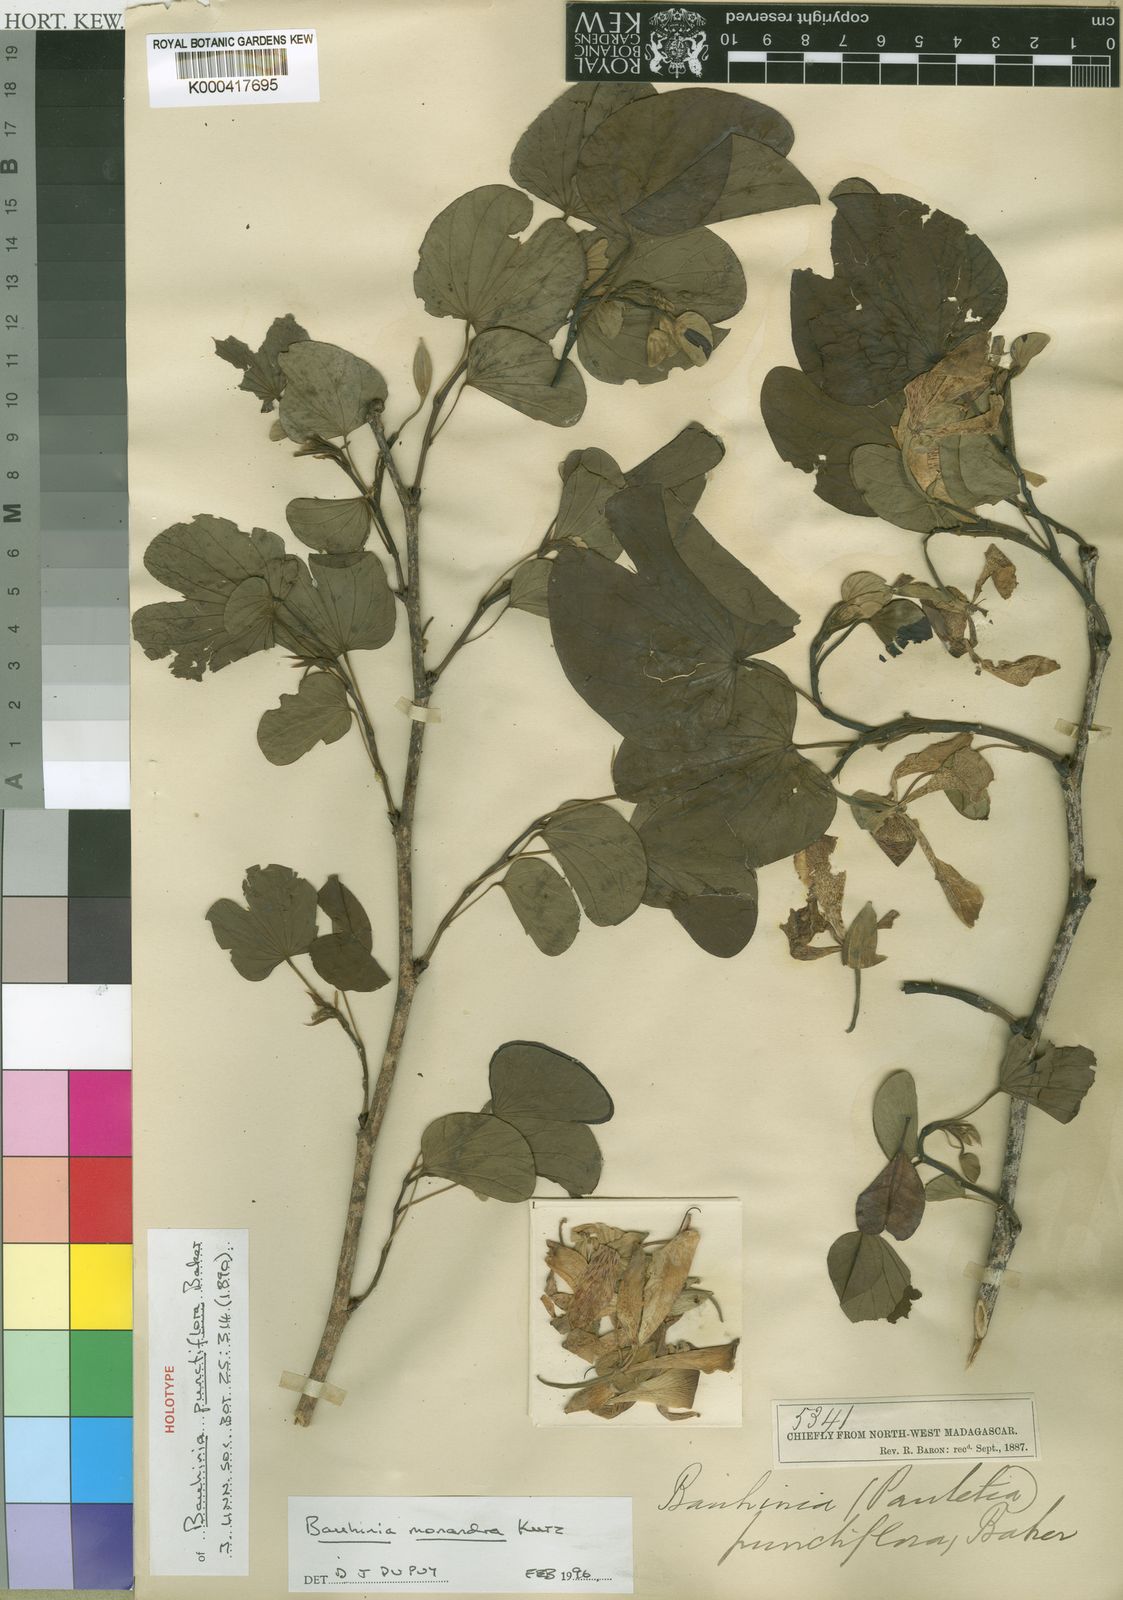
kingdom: Plantae
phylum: Tracheophyta
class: Magnoliopsida
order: Fabales
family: Fabaceae
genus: Bauhinia
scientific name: Bauhinia monandra
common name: Napoleon's plume
